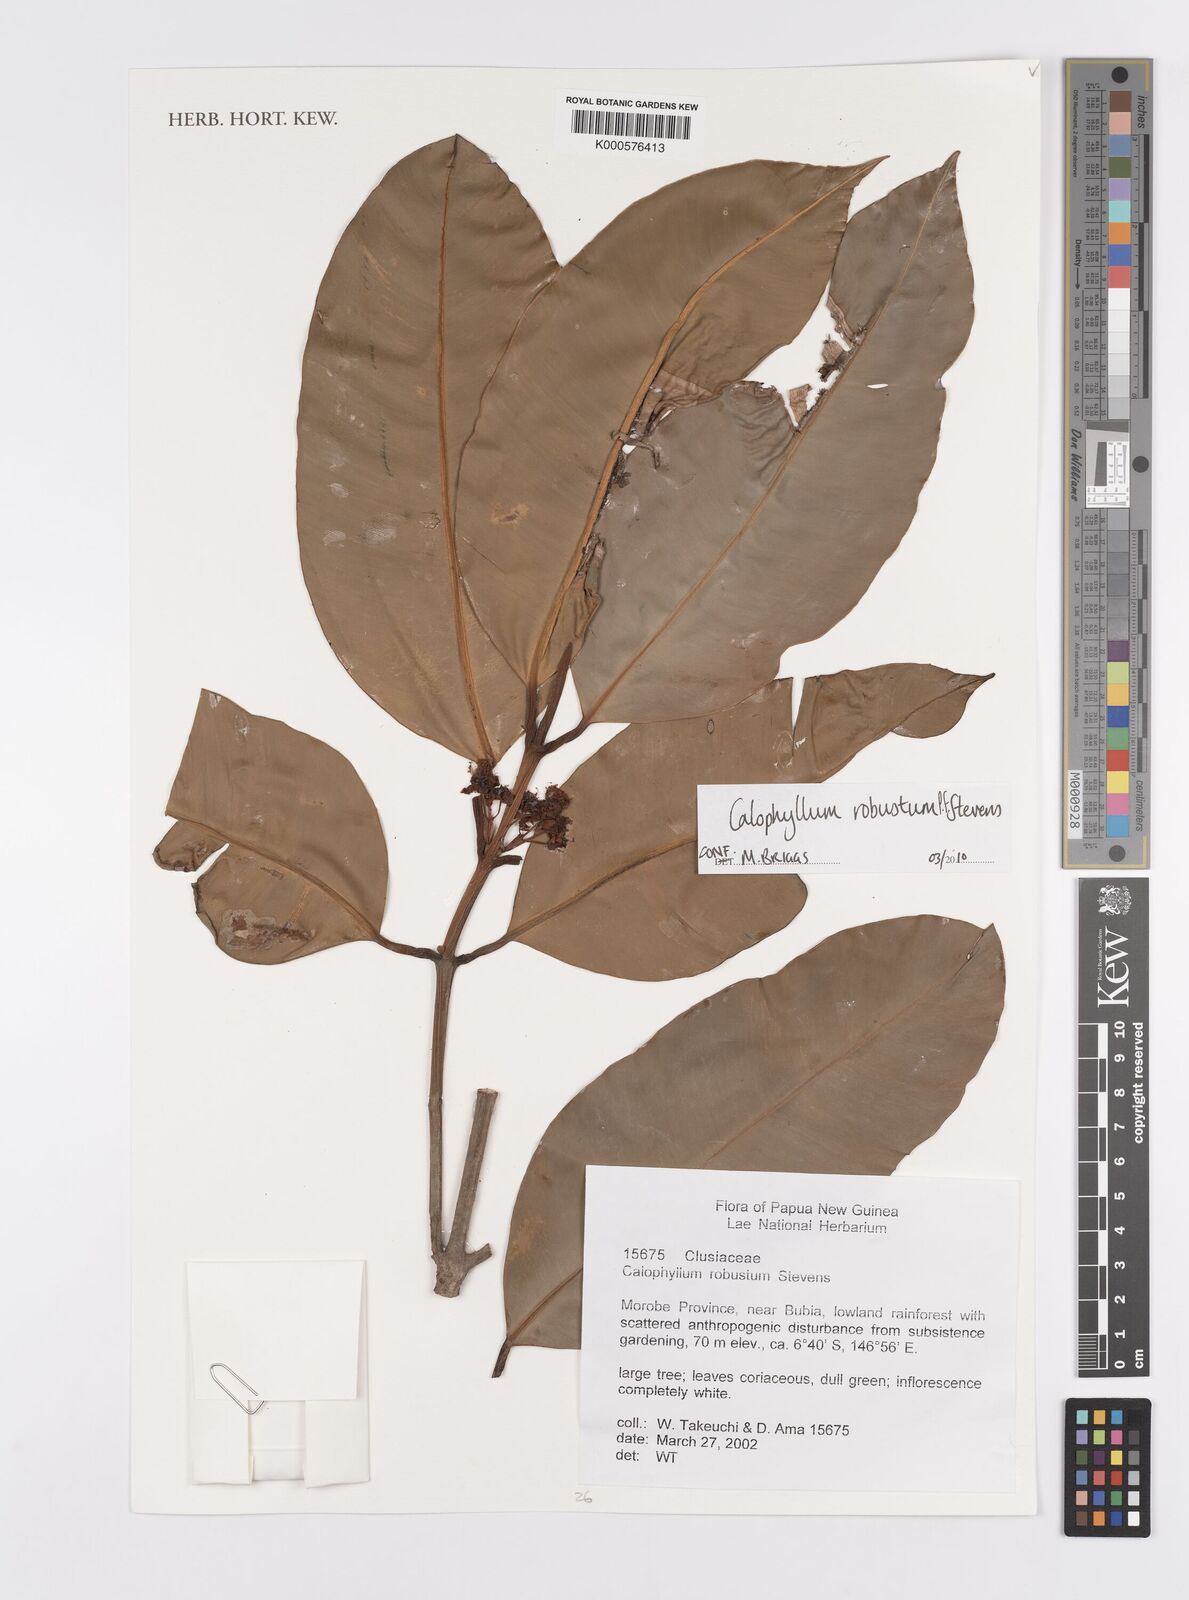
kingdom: Plantae
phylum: Tracheophyta
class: Magnoliopsida
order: Malpighiales
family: Calophyllaceae
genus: Calophyllum
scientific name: Calophyllum robustum
